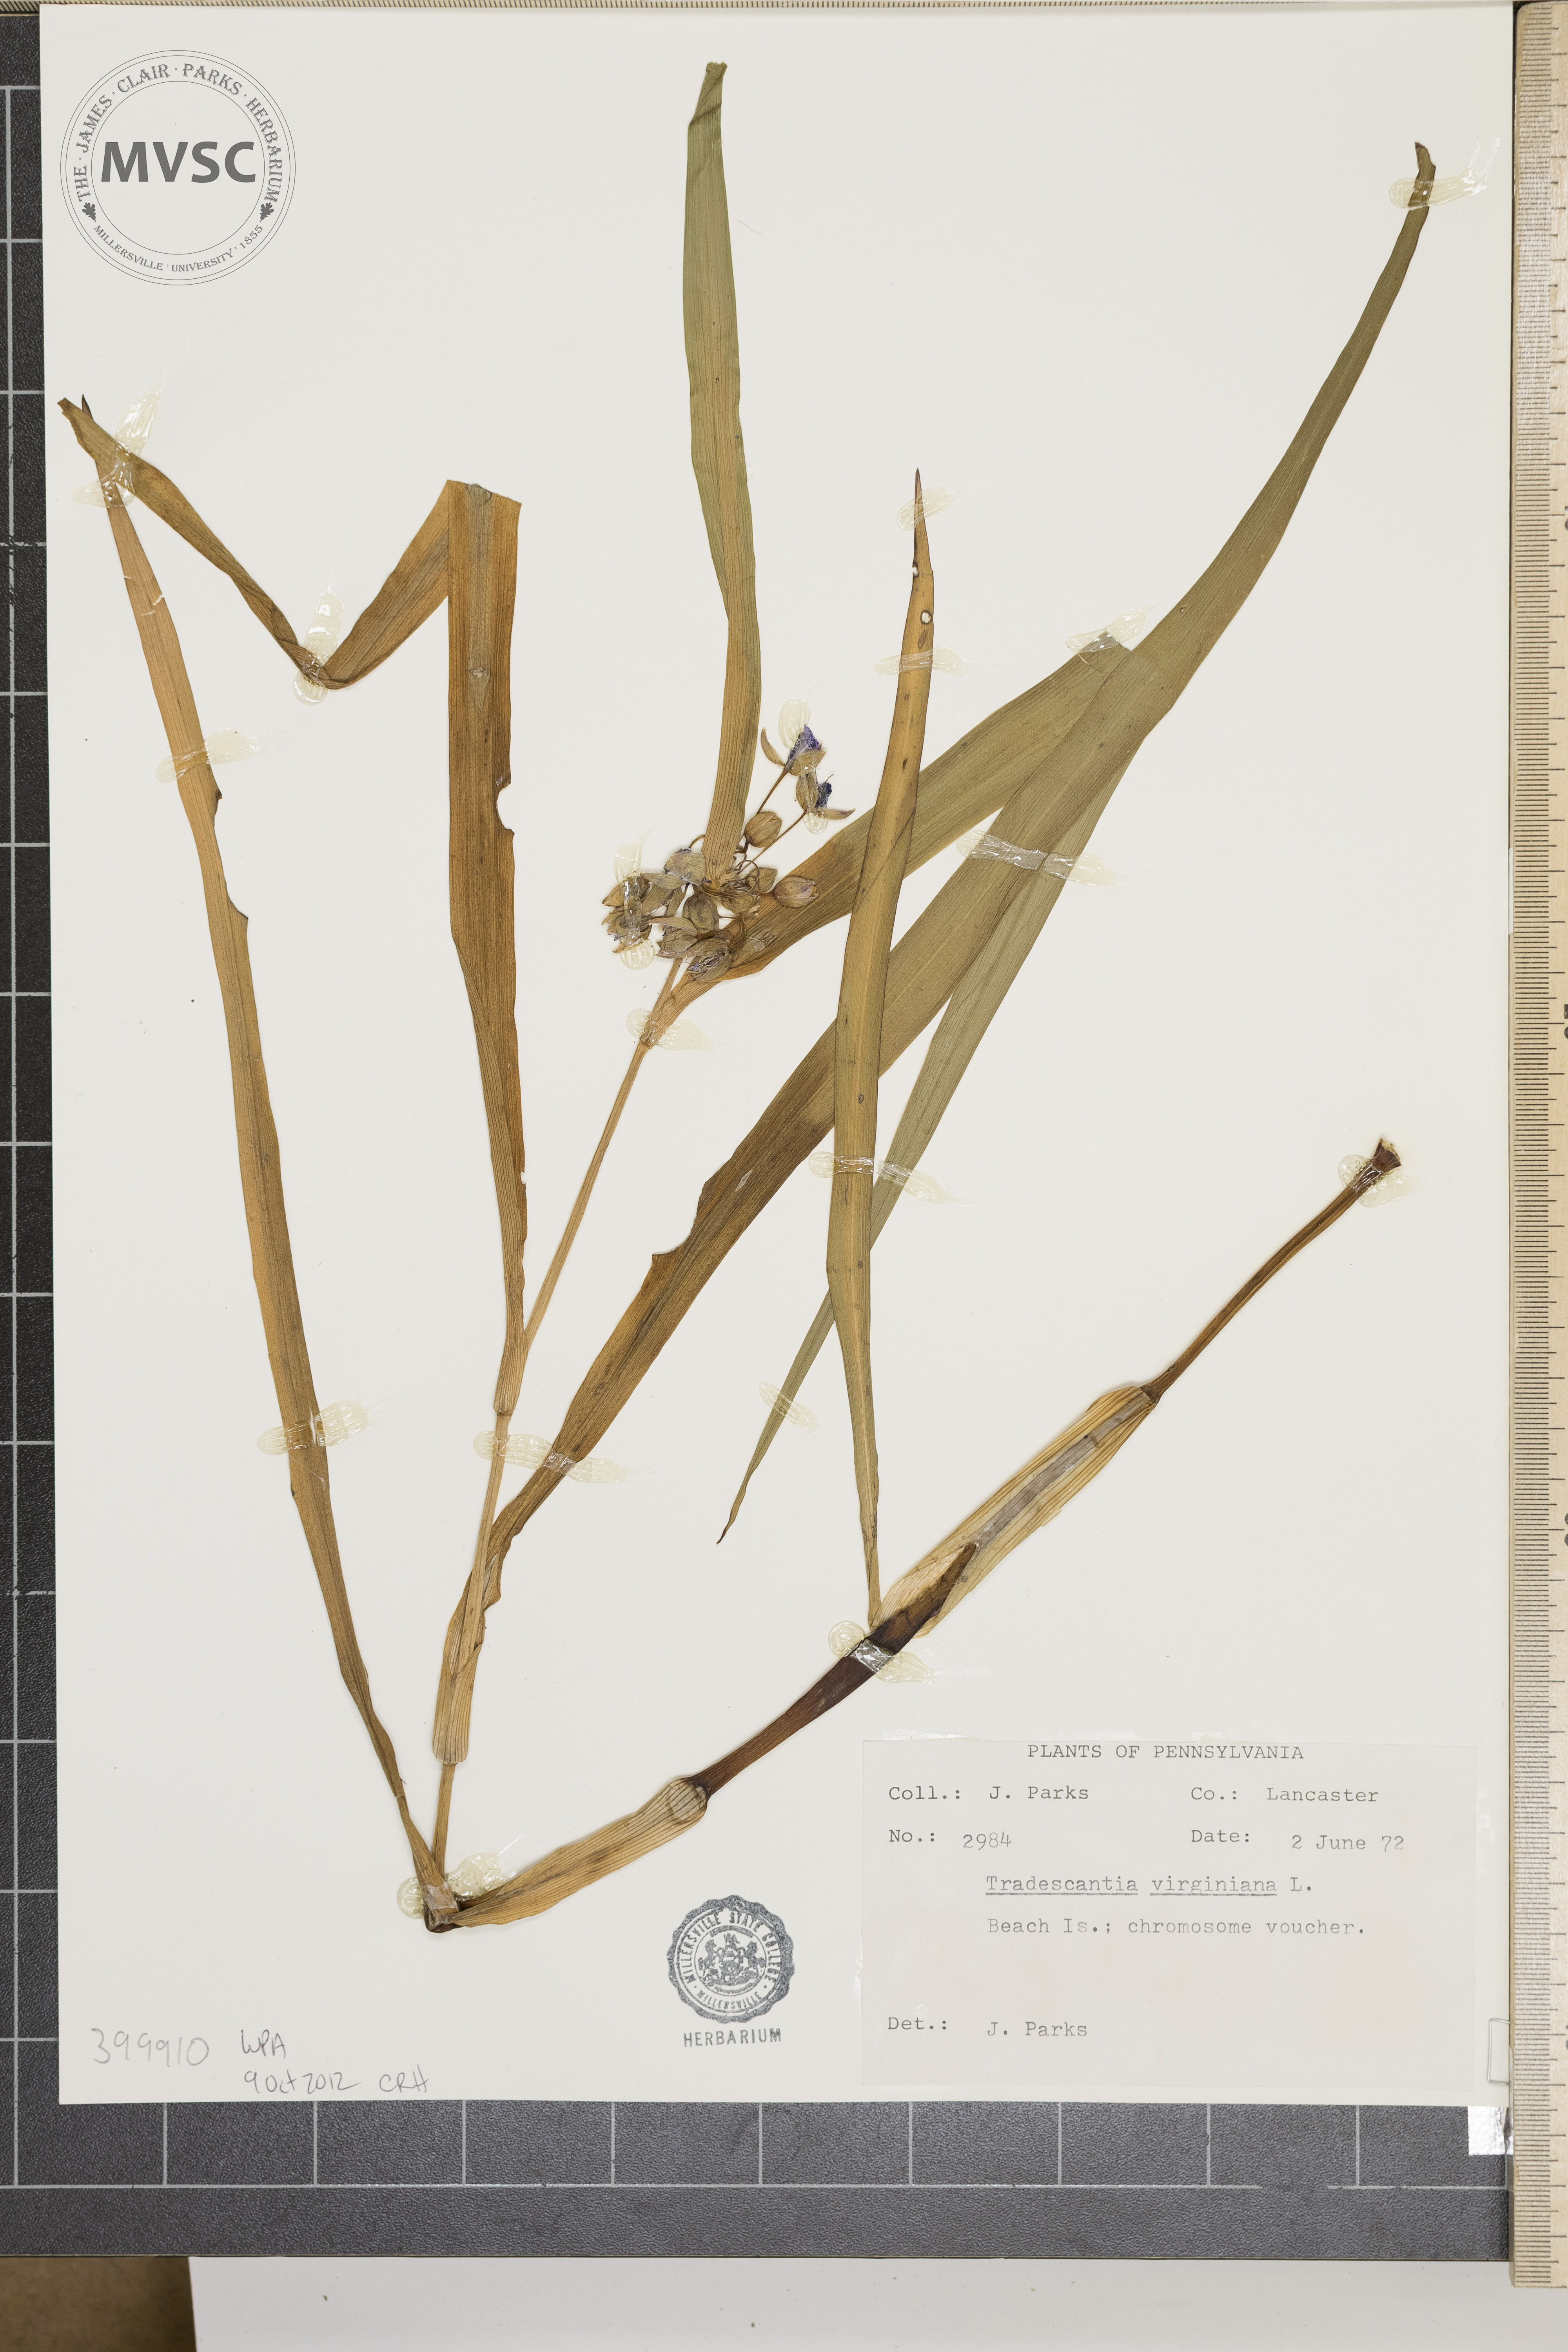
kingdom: Plantae
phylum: Tracheophyta
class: Liliopsida
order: Commelinales
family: Commelinaceae
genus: Tradescantia
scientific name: Tradescantia virginiana
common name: Virginia spiderwort
